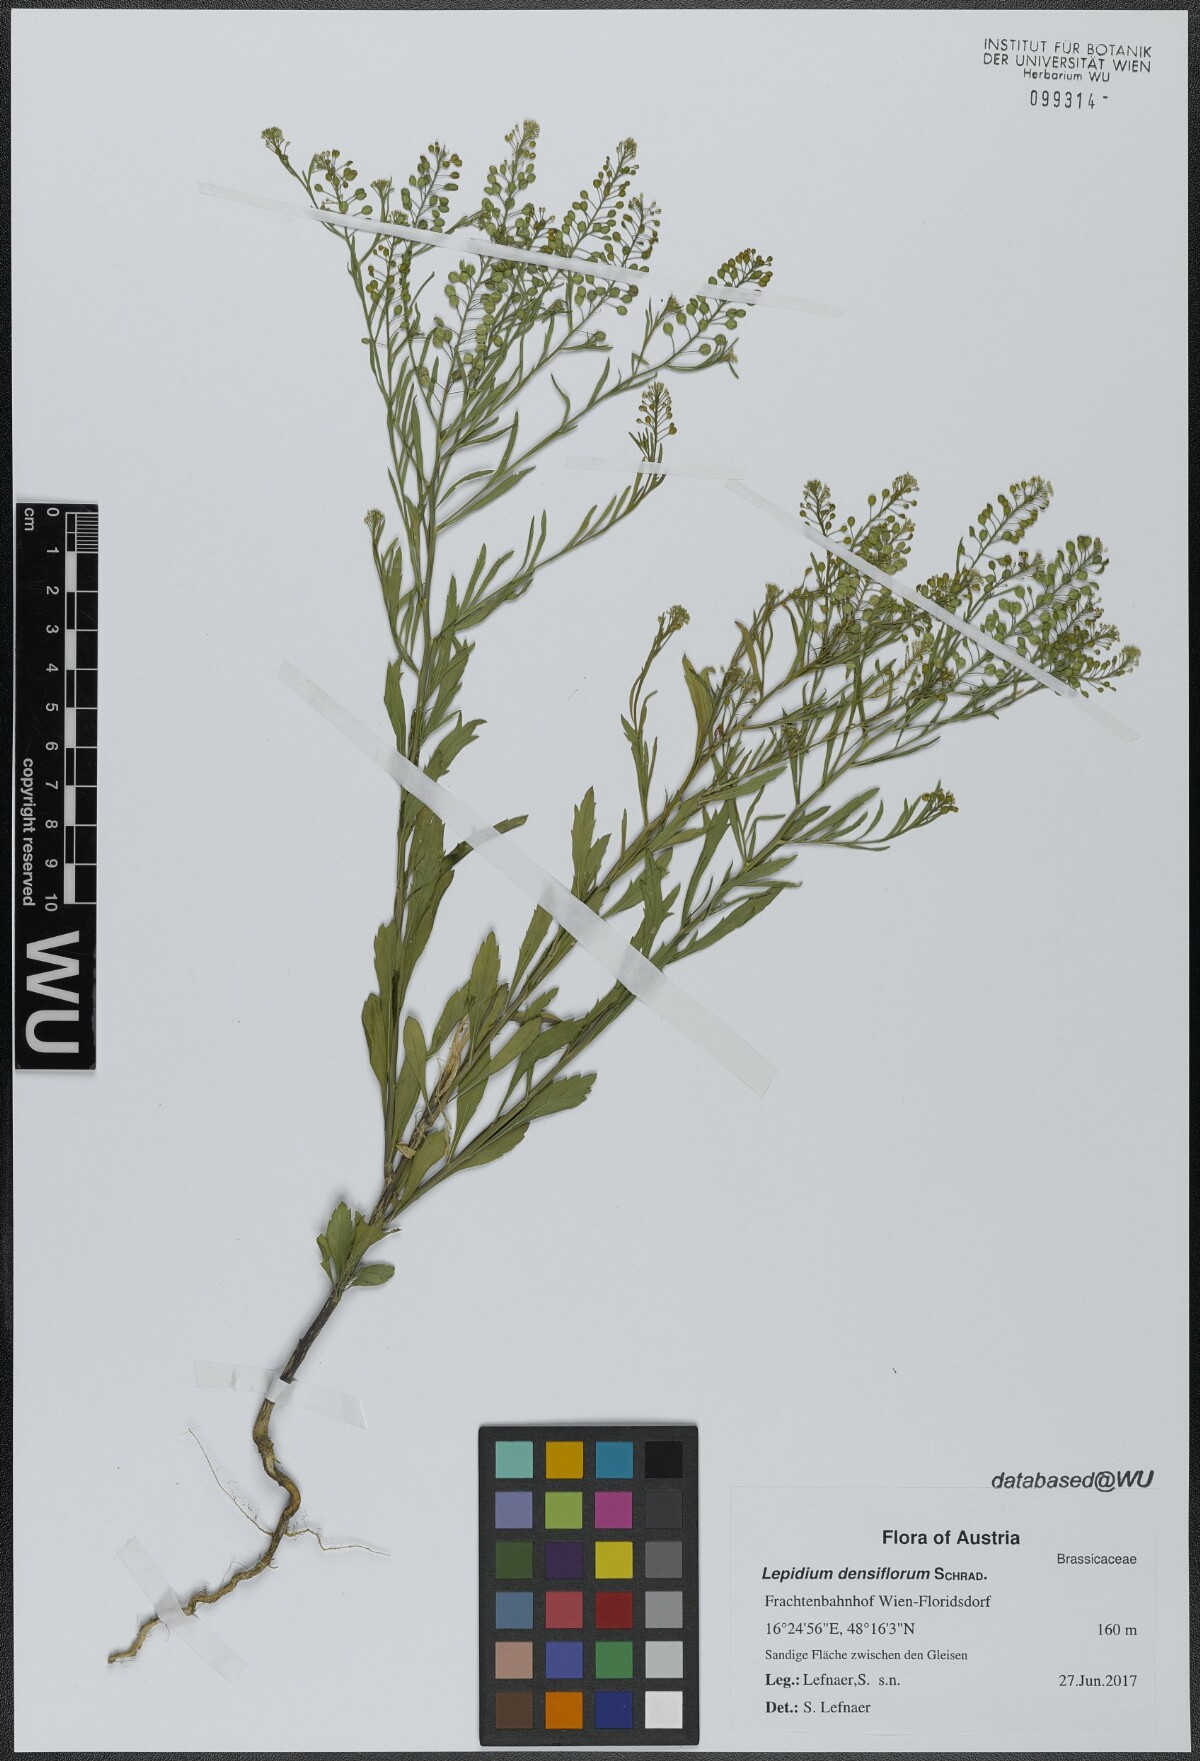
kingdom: Plantae
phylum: Tracheophyta
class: Magnoliopsida
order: Brassicales
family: Brassicaceae
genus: Lepidium
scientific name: Lepidium densiflorum
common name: Miner's pepperwort
